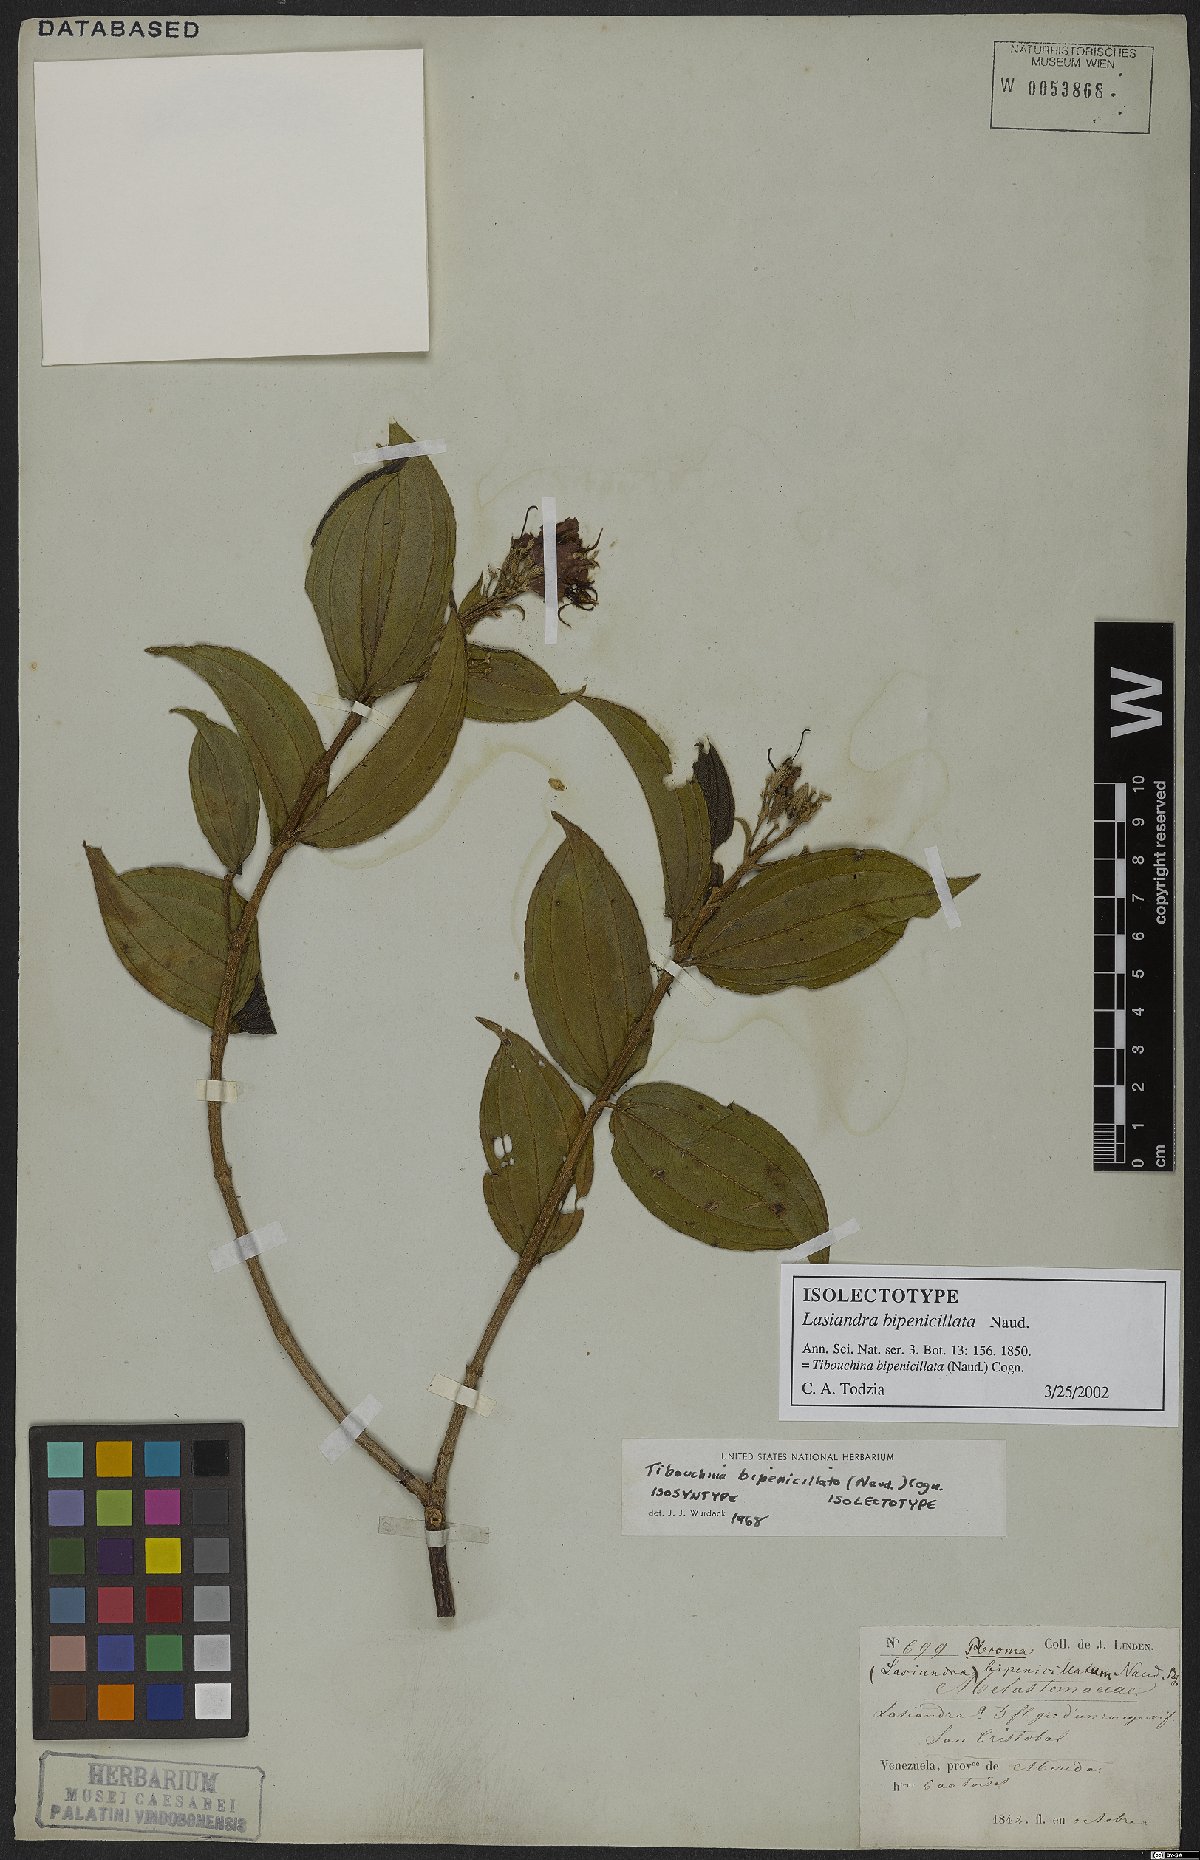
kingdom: Plantae
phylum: Tracheophyta
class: Magnoliopsida
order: Myrtales
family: Melastomataceae
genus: Pleroma
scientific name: Pleroma bipenicillatum
